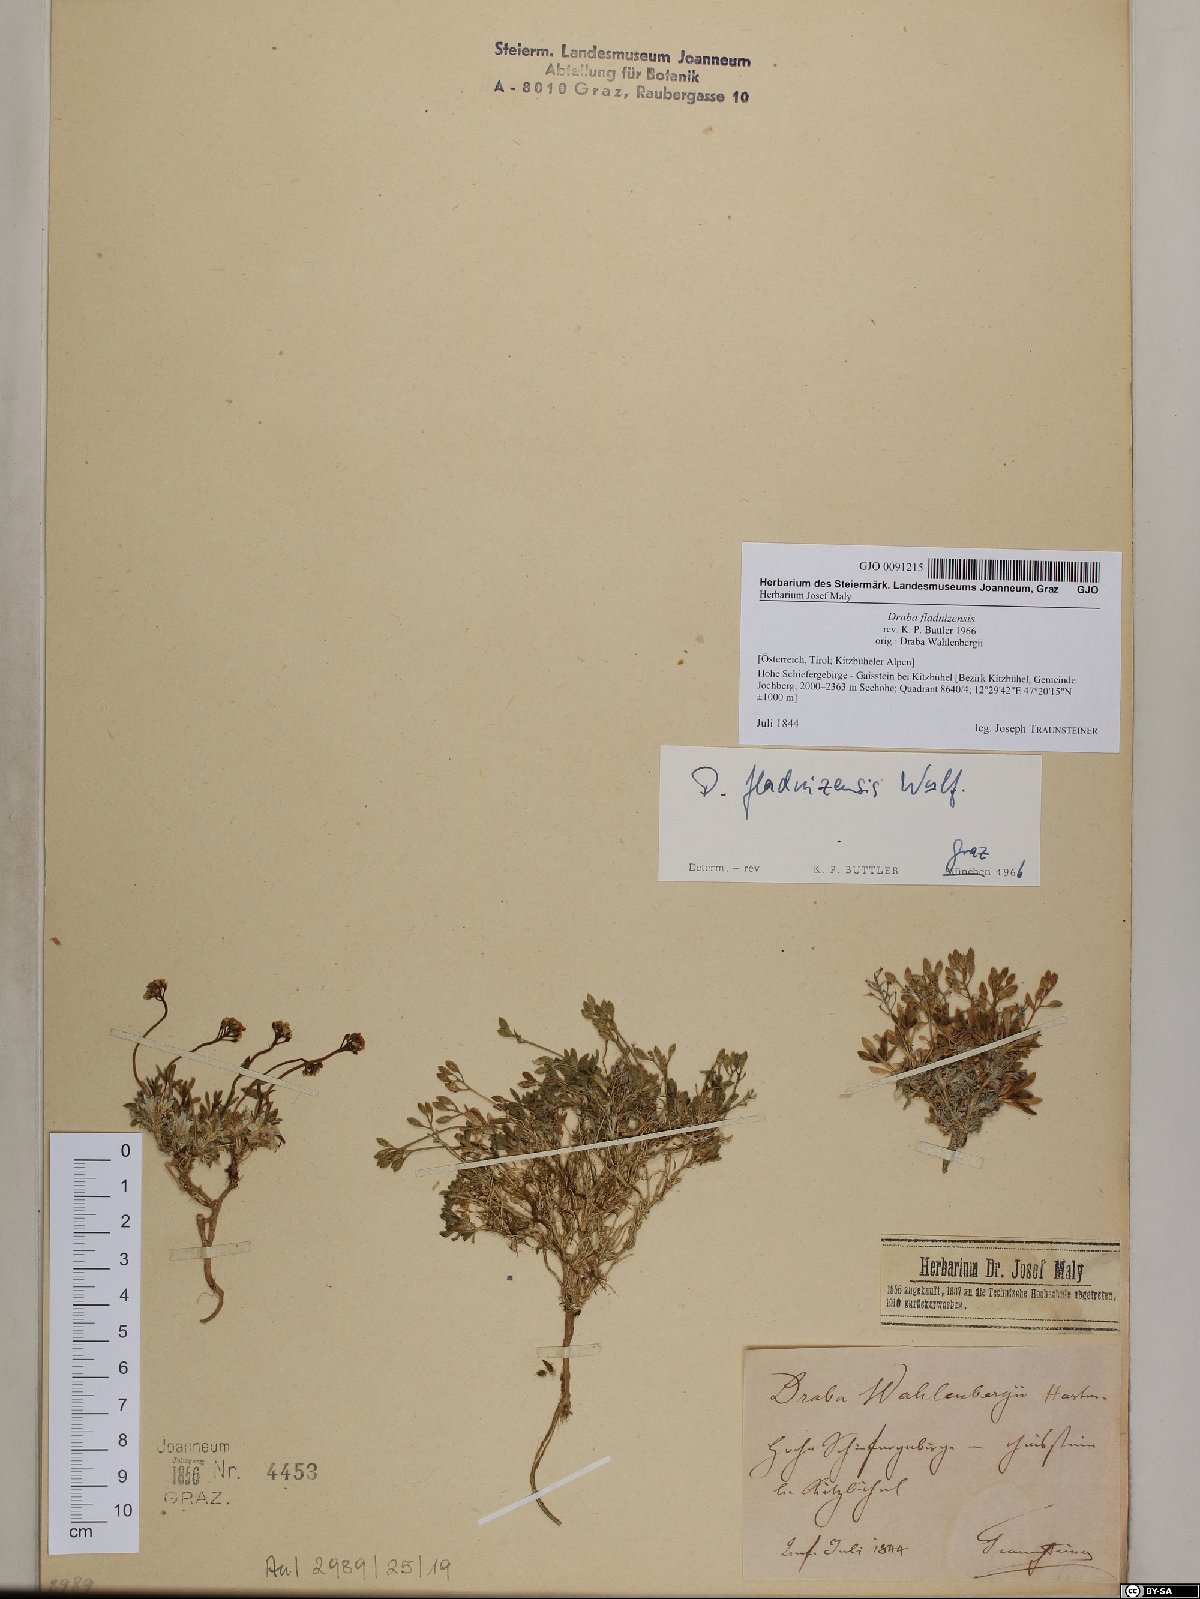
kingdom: Plantae
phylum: Tracheophyta
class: Magnoliopsida
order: Brassicales
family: Brassicaceae
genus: Draba
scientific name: Draba fladnizensis
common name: Austrian draba
